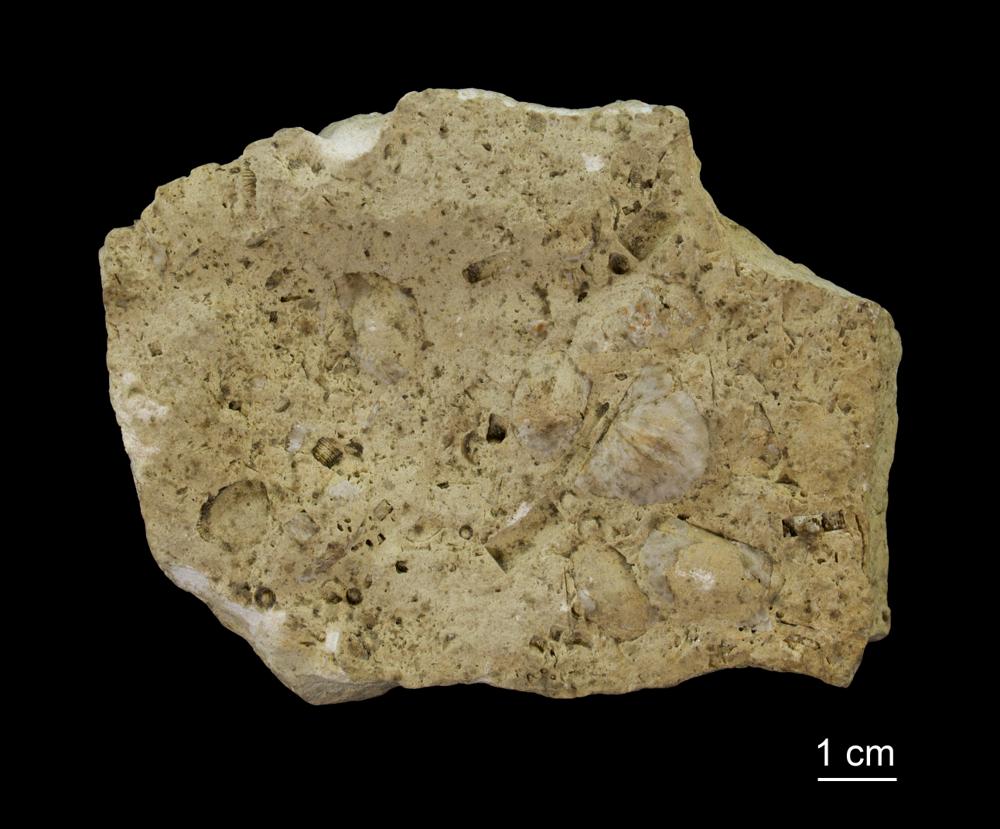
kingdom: Animalia
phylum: Brachiopoda
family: Strophomenidae
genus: Actinomena
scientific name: Actinomena
